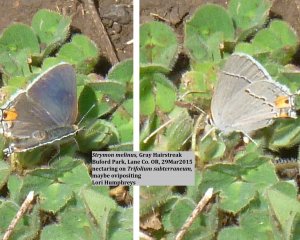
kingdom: Animalia
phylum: Arthropoda
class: Insecta
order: Lepidoptera
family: Lycaenidae
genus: Strymon
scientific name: Strymon melinus
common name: Gray Hairstreak
